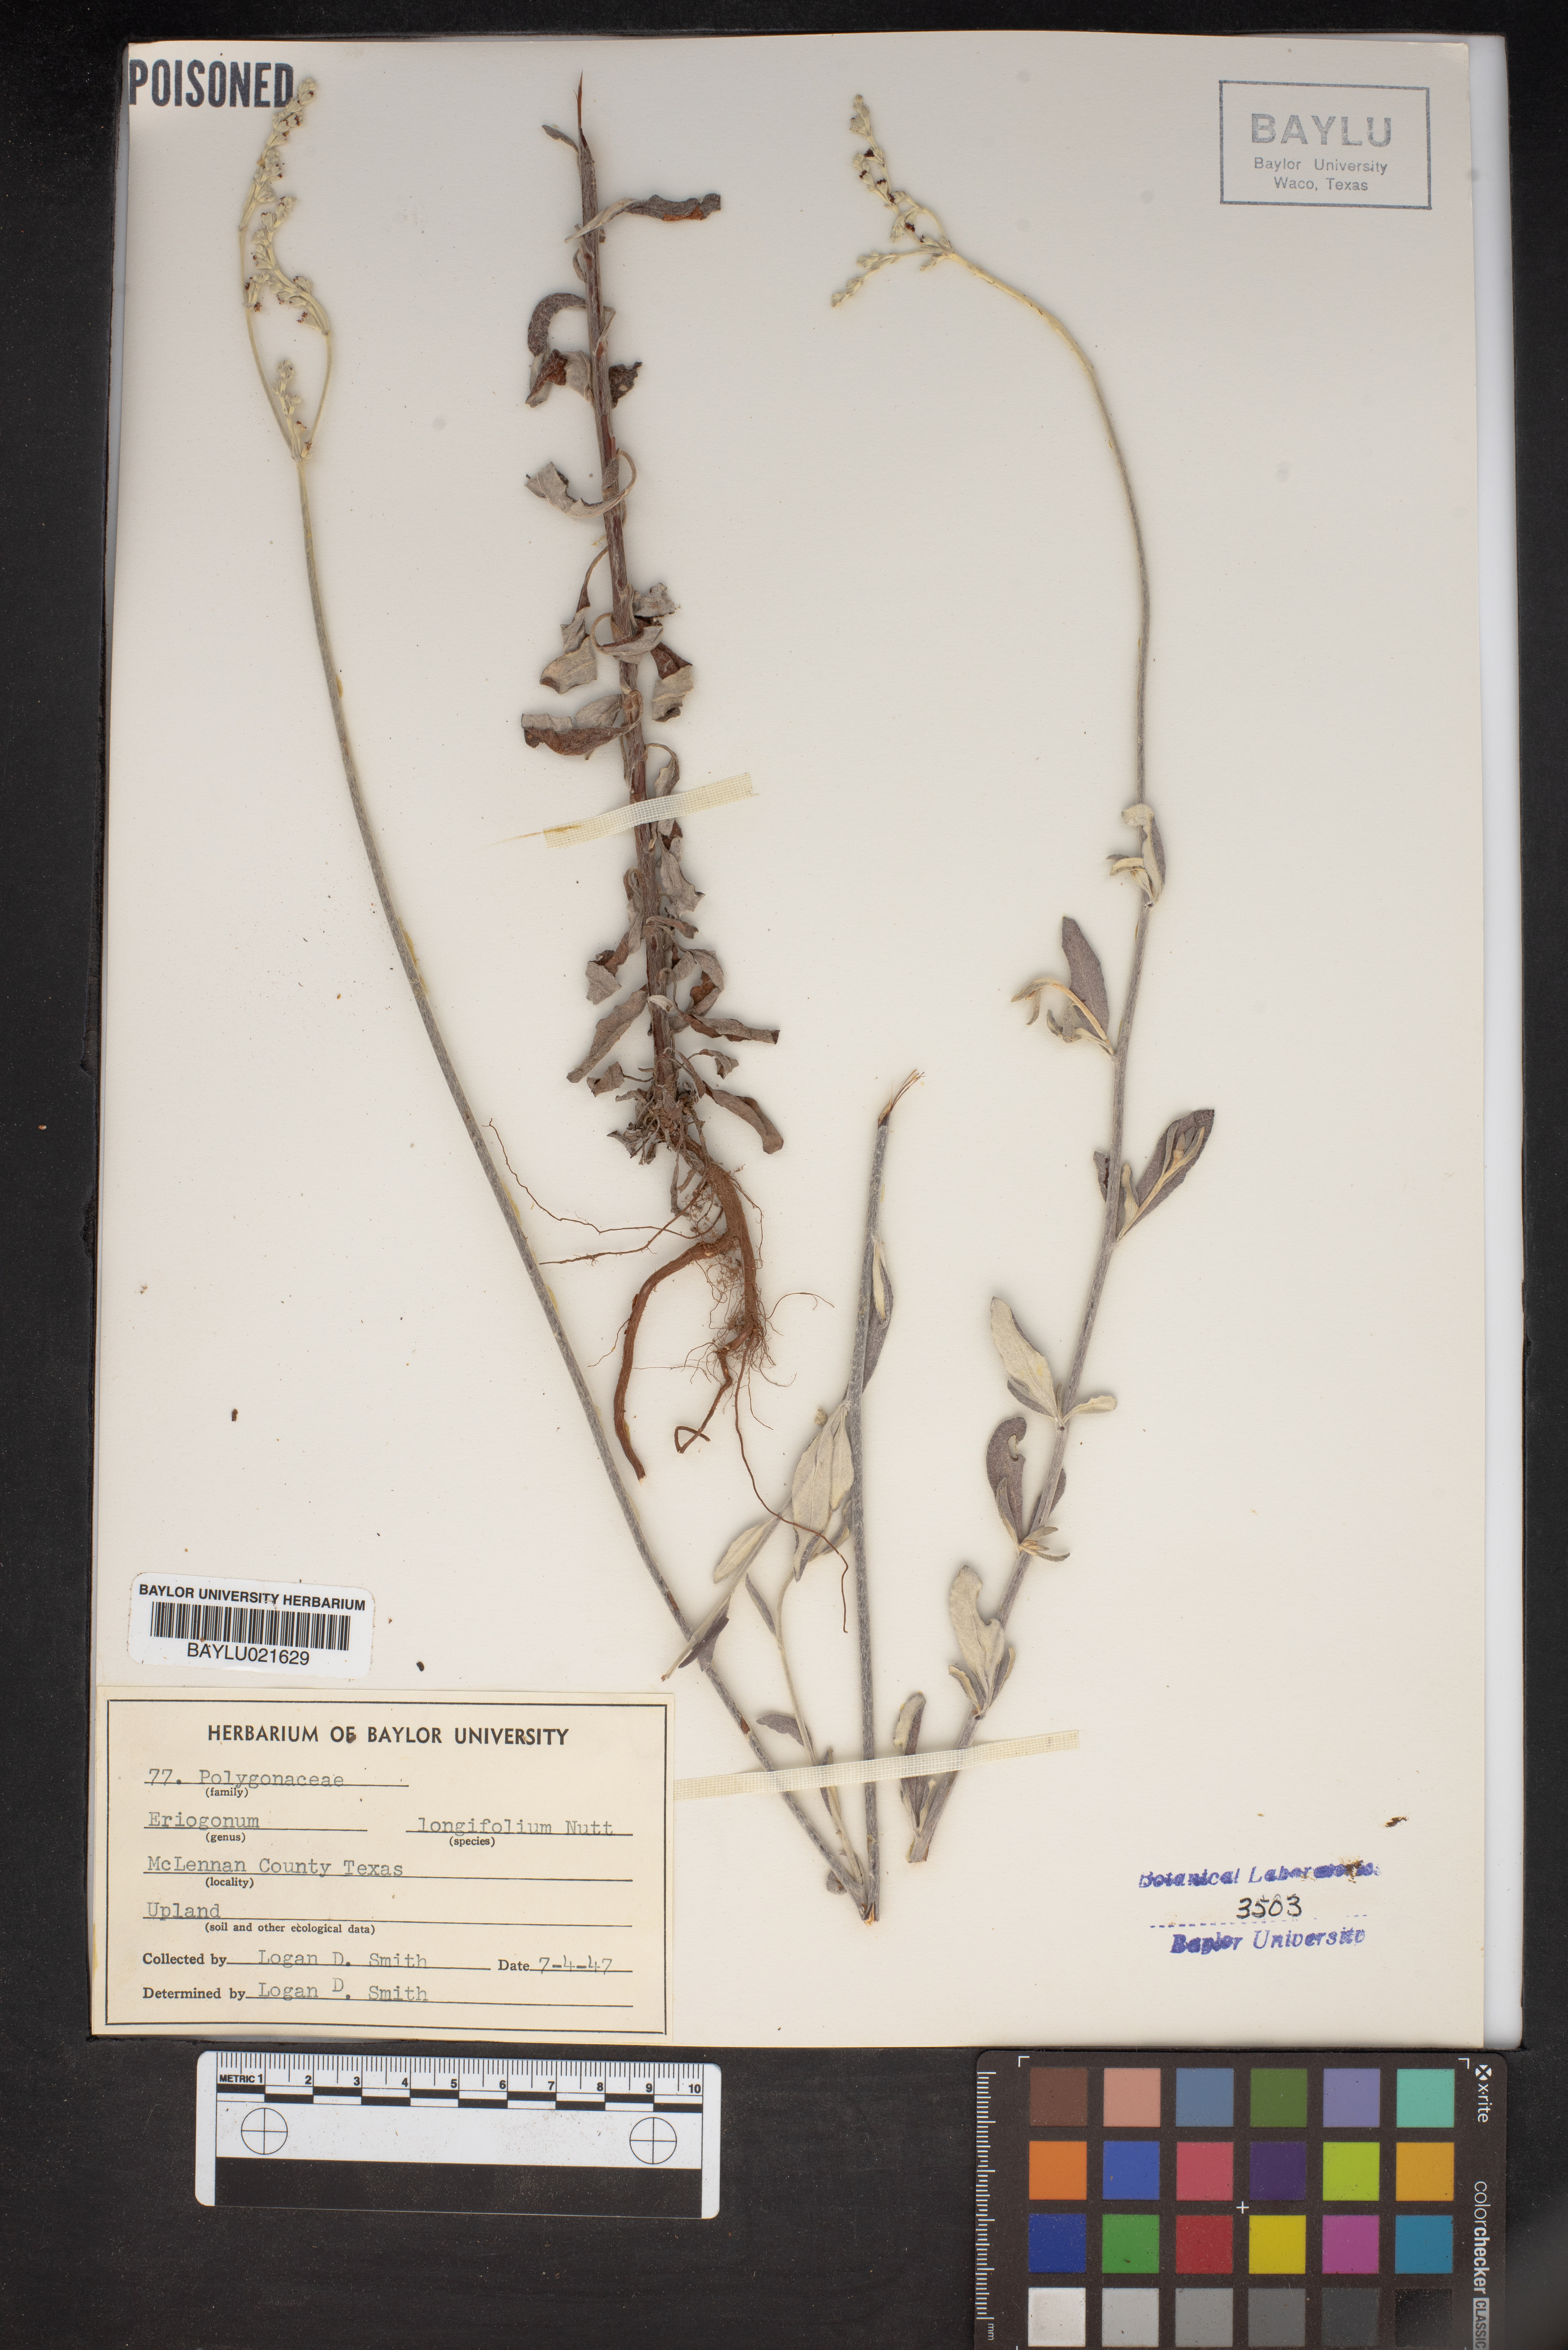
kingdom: Plantae
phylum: Tracheophyta
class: Magnoliopsida
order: Caryophyllales
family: Polygonaceae
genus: Eriogonum
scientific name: Eriogonum longifolium
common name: Longleaf wild buckwheat
